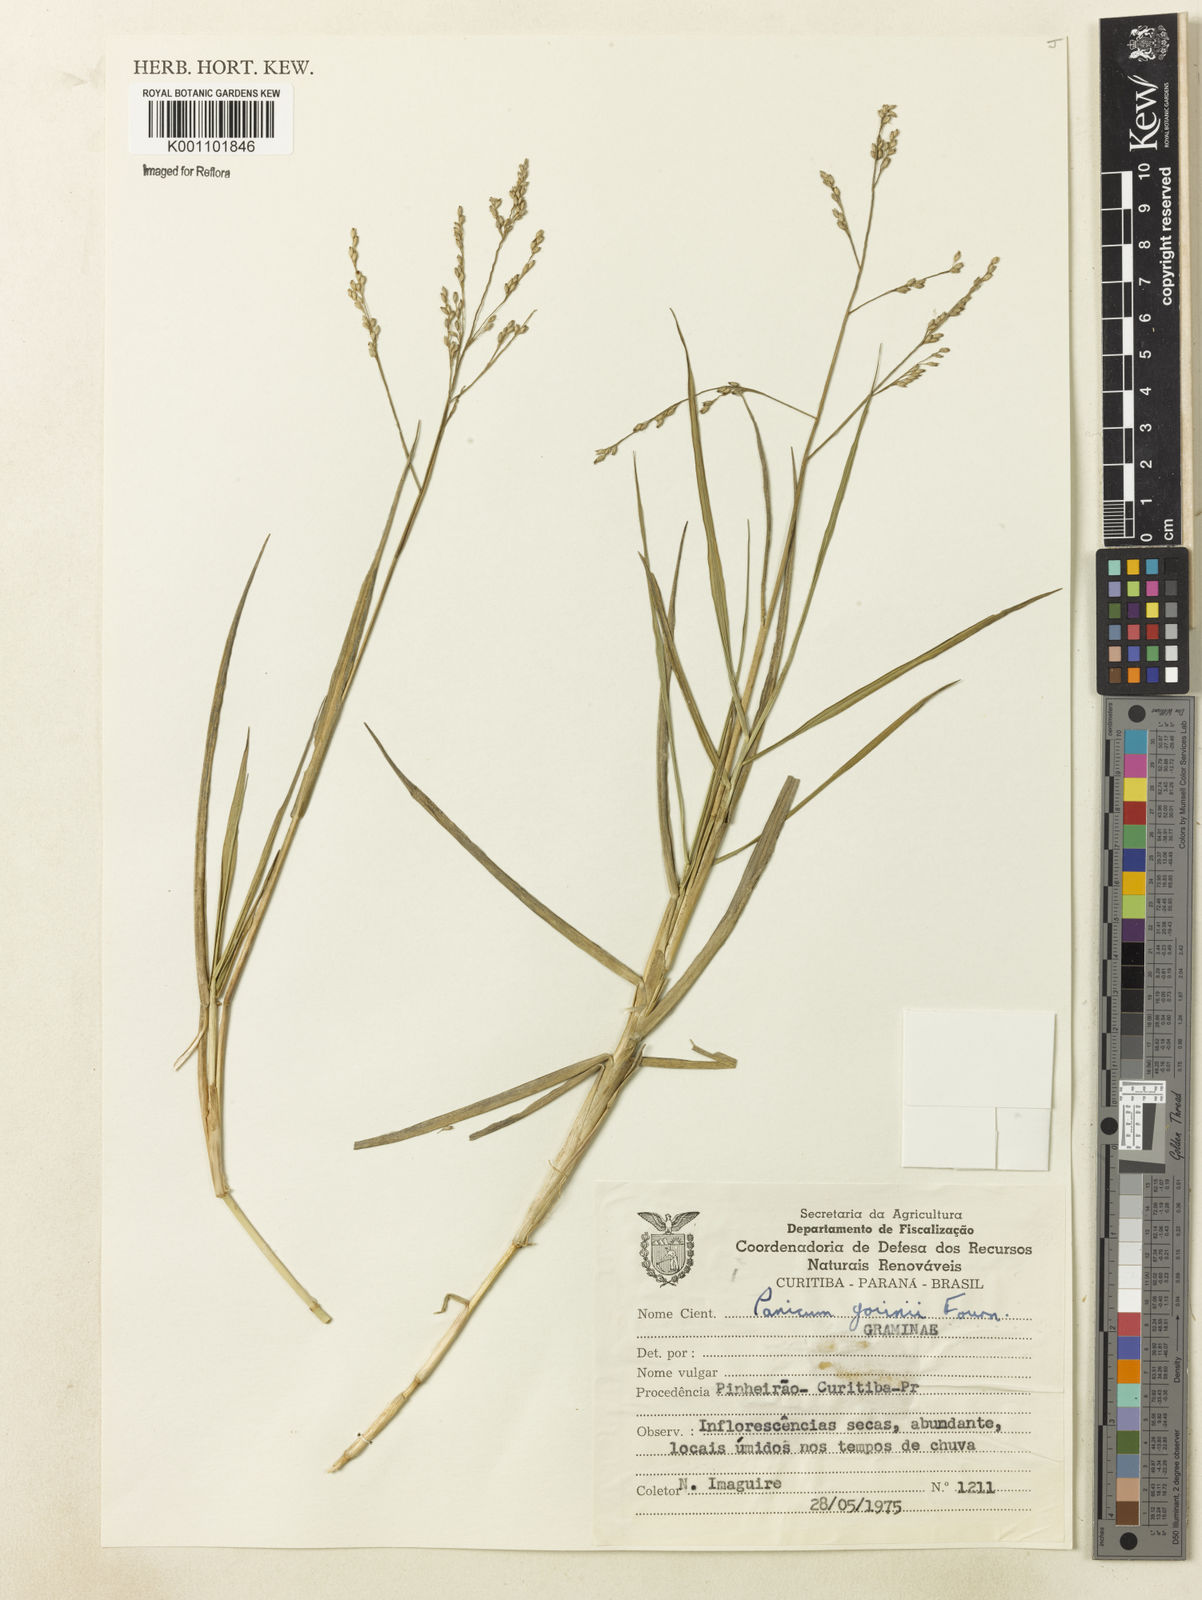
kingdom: Plantae
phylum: Tracheophyta
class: Liliopsida
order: Poales
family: Poaceae
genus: Panicum
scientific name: Panicum gouinii
